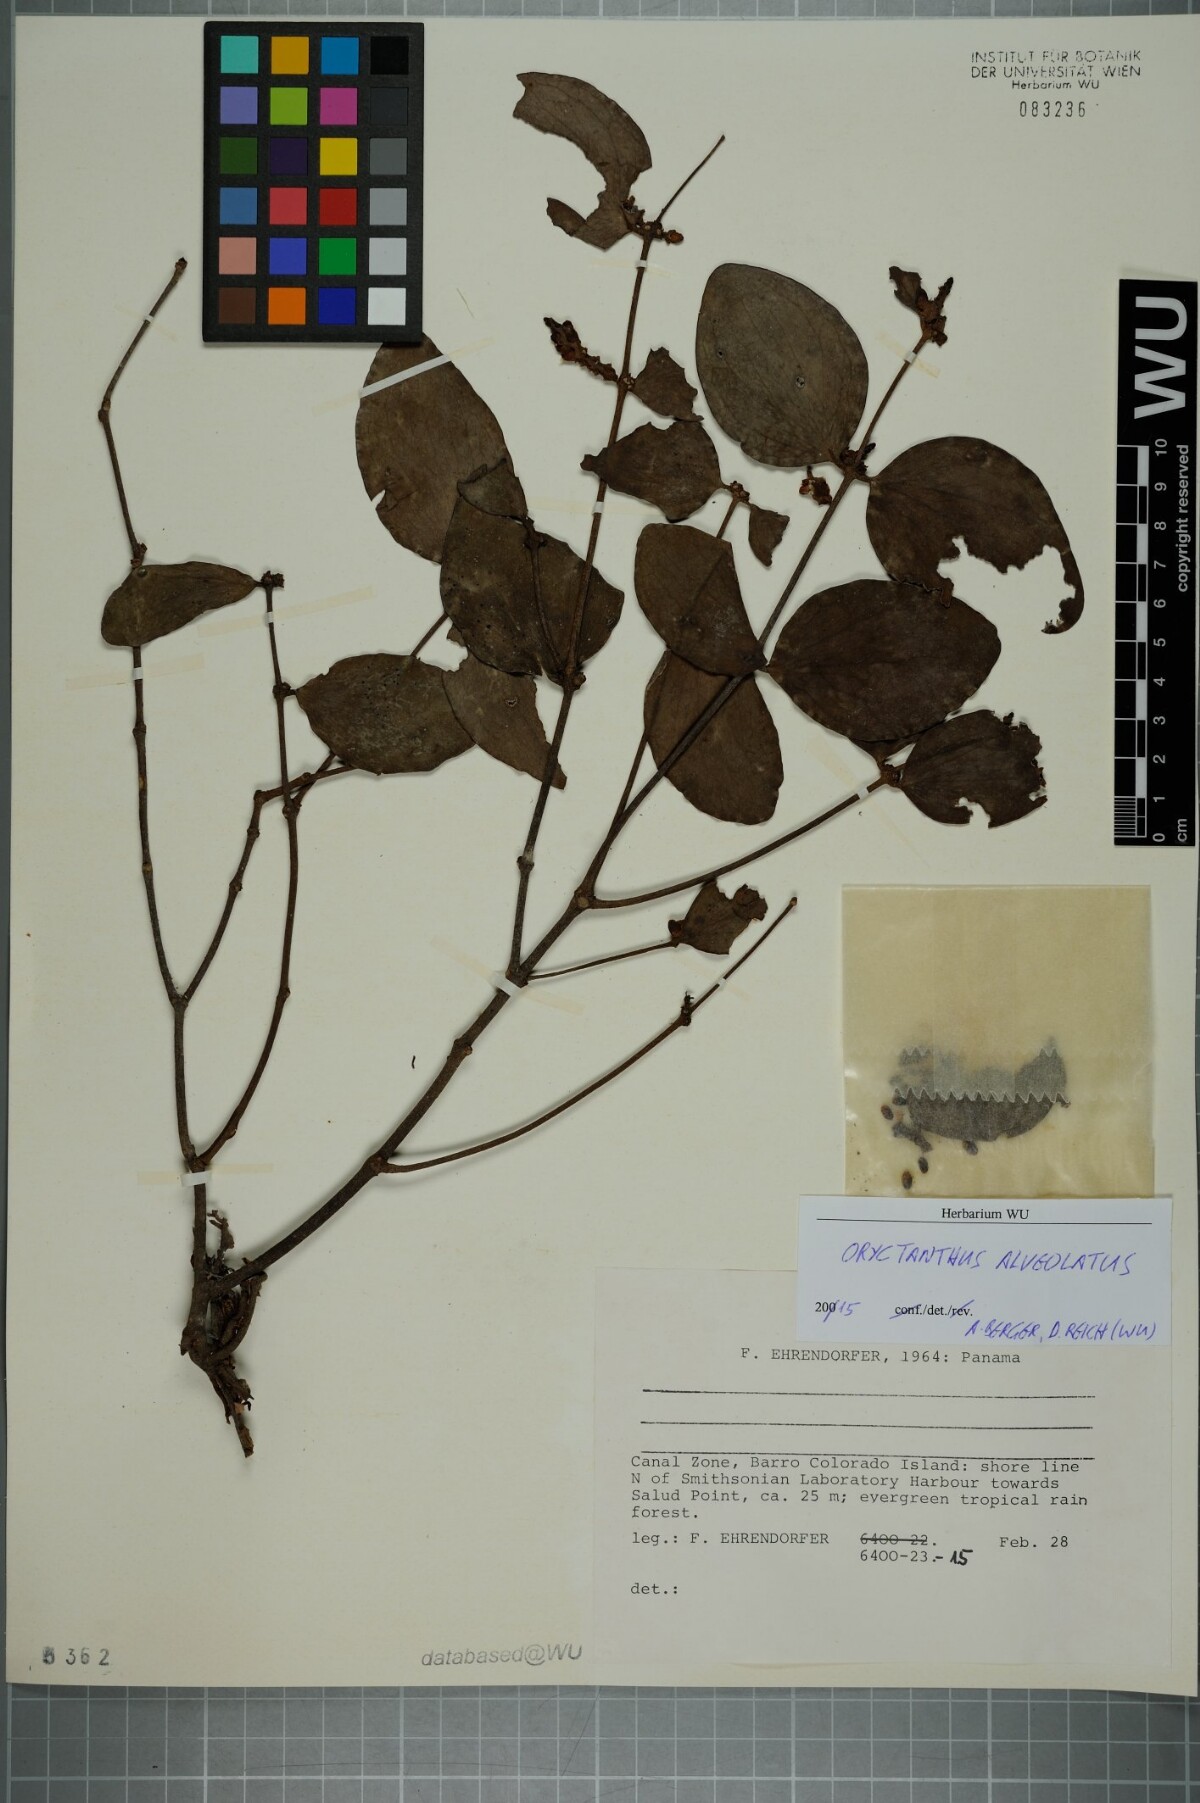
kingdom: Plantae
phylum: Tracheophyta
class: Magnoliopsida
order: Santalales
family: Loranthaceae
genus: Oryctanthus
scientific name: Oryctanthus alveolatus
